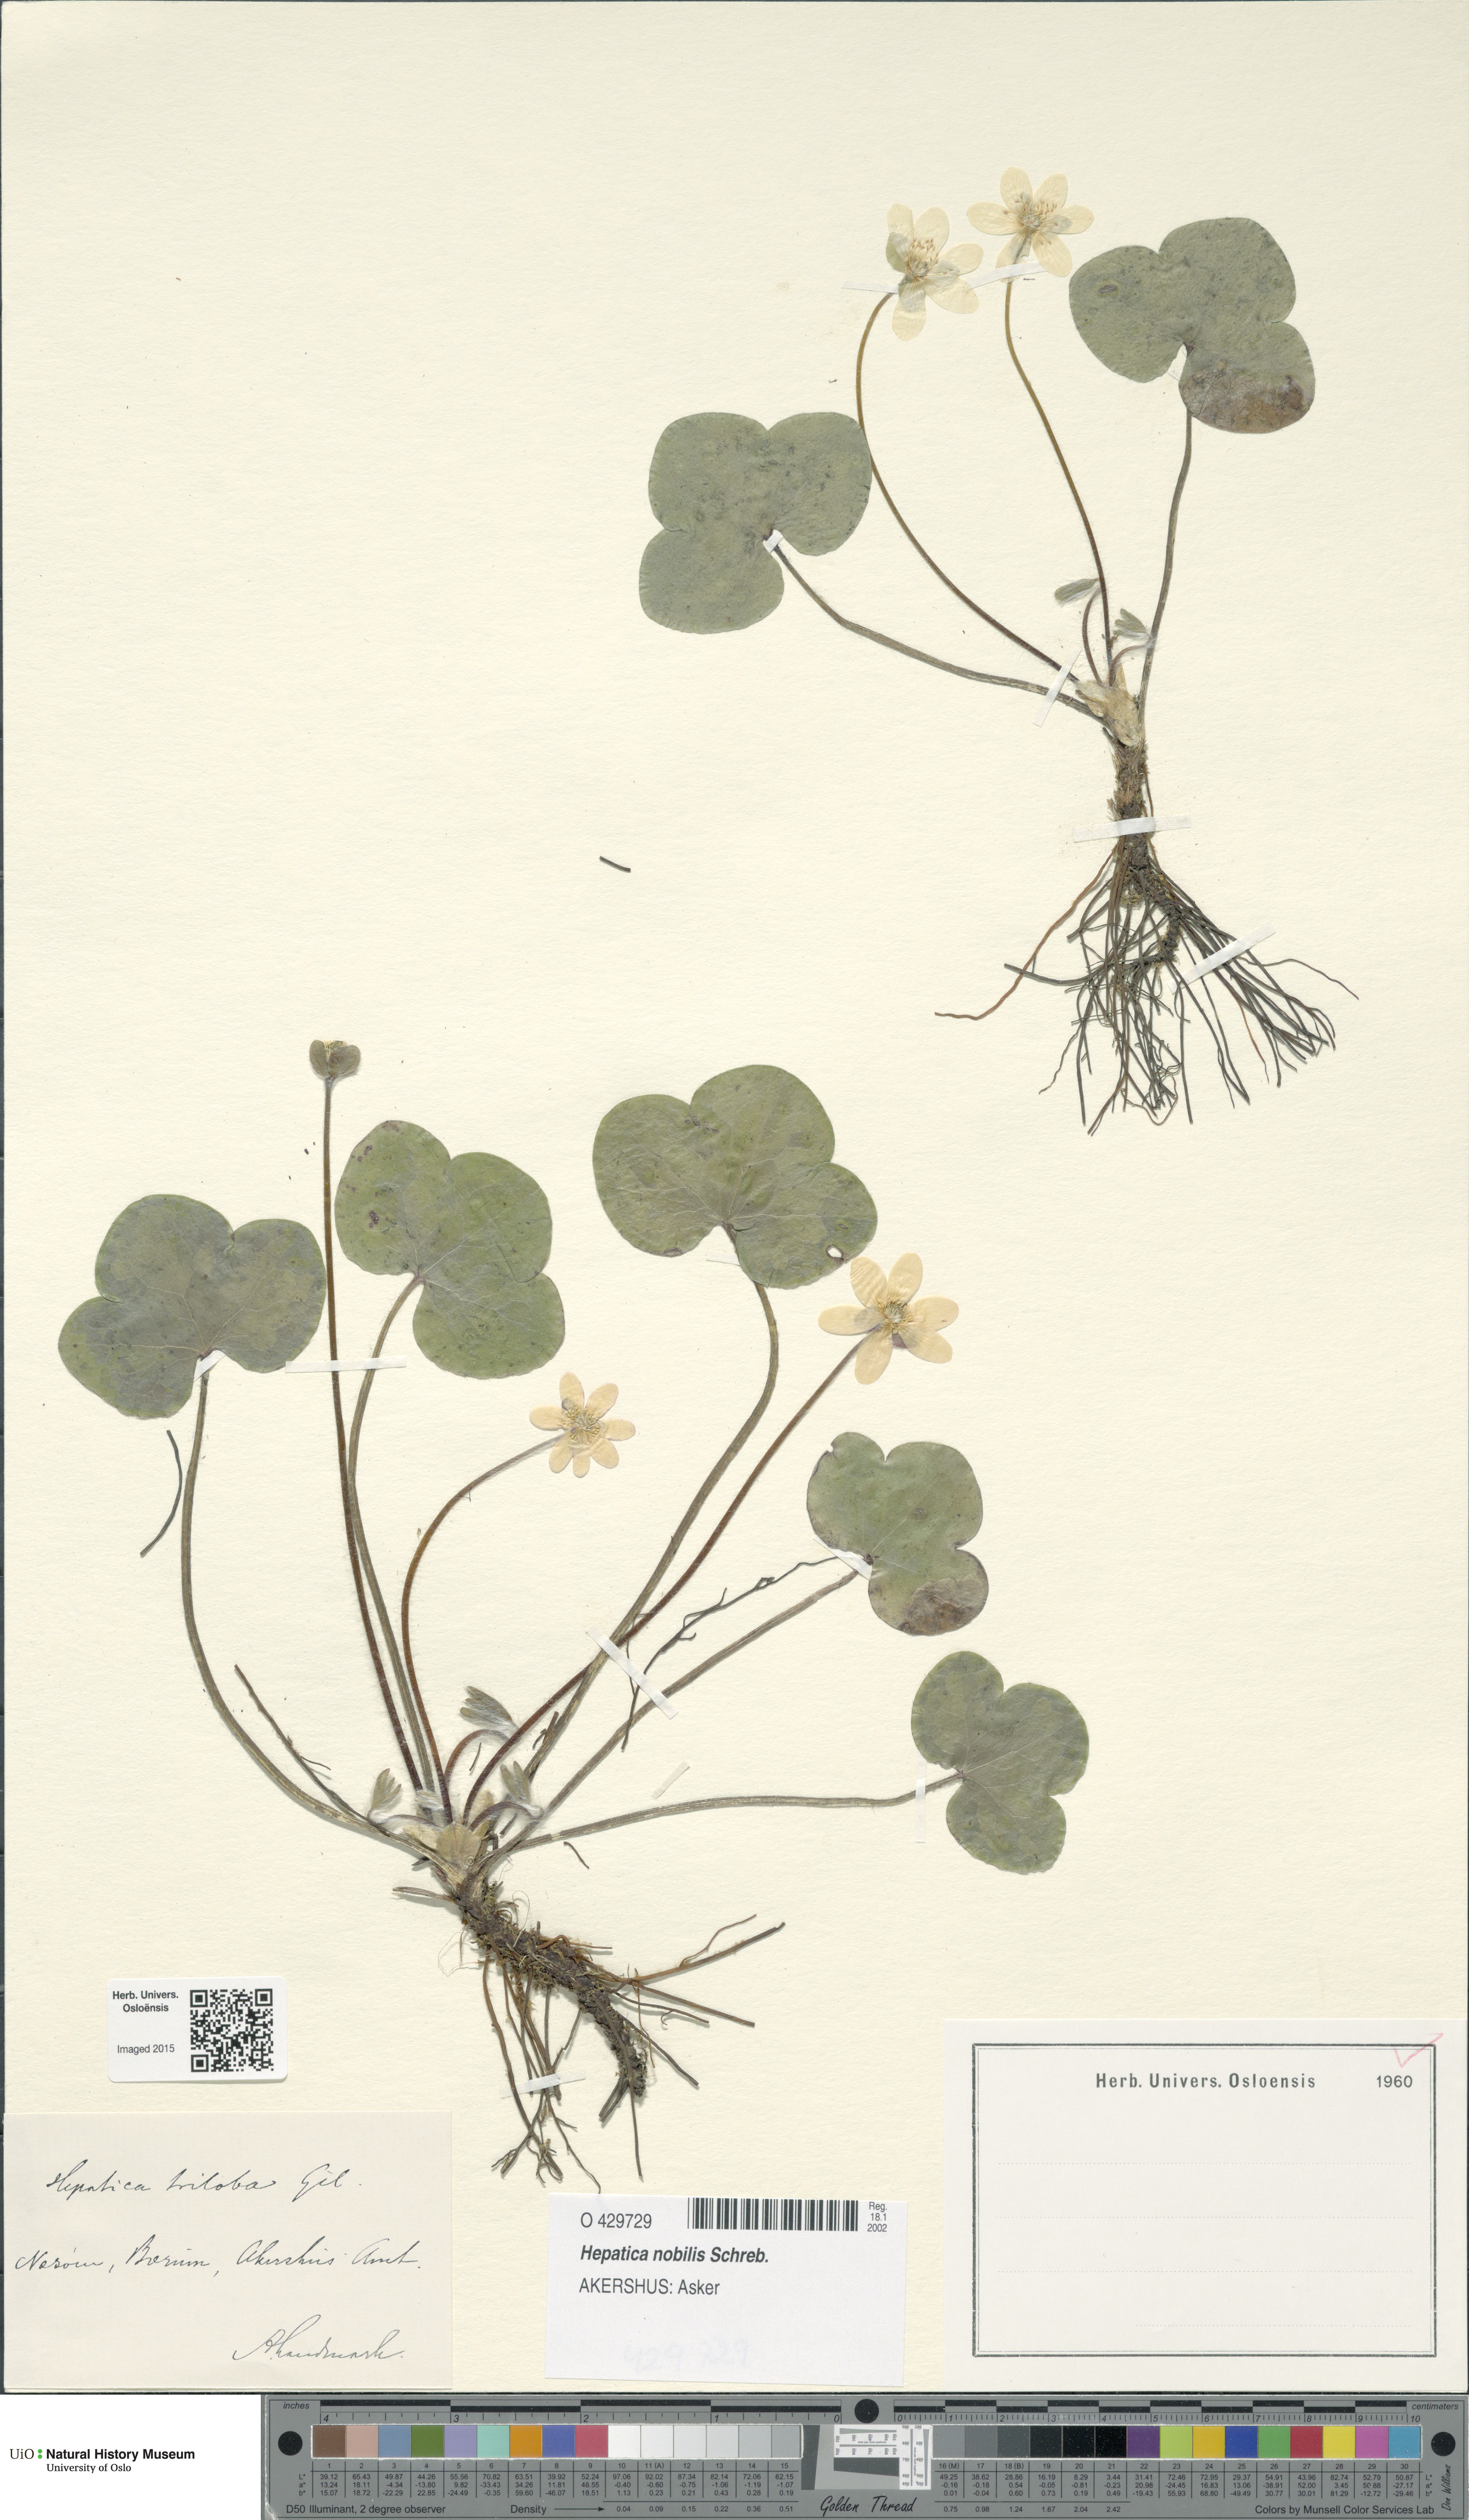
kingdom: Plantae
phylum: Tracheophyta
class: Magnoliopsida
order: Ranunculales
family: Ranunculaceae
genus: Hepatica
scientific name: Hepatica nobilis
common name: Liverleaf
